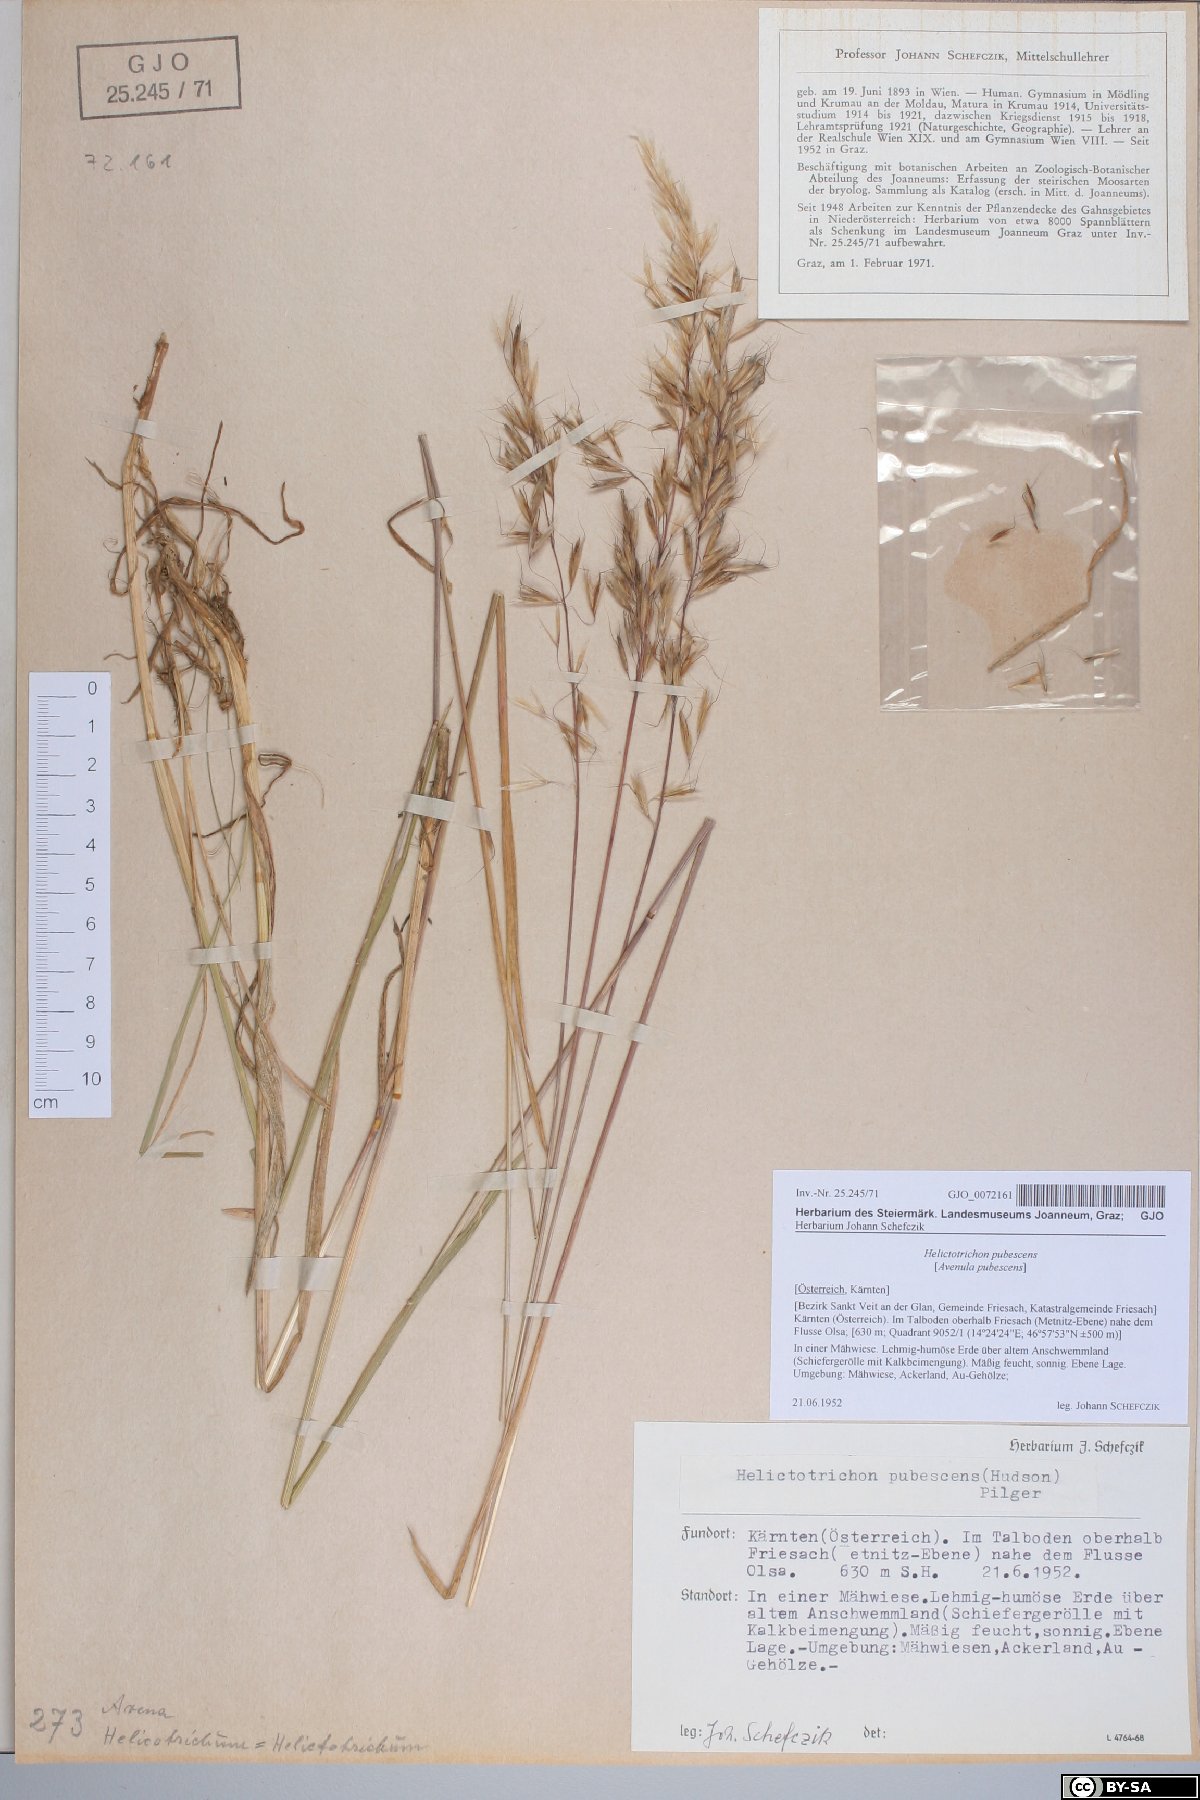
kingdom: Plantae
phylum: Tracheophyta
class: Liliopsida
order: Poales
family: Poaceae
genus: Avenula
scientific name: Avenula pubescens
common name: Downy alpine oatgrass
